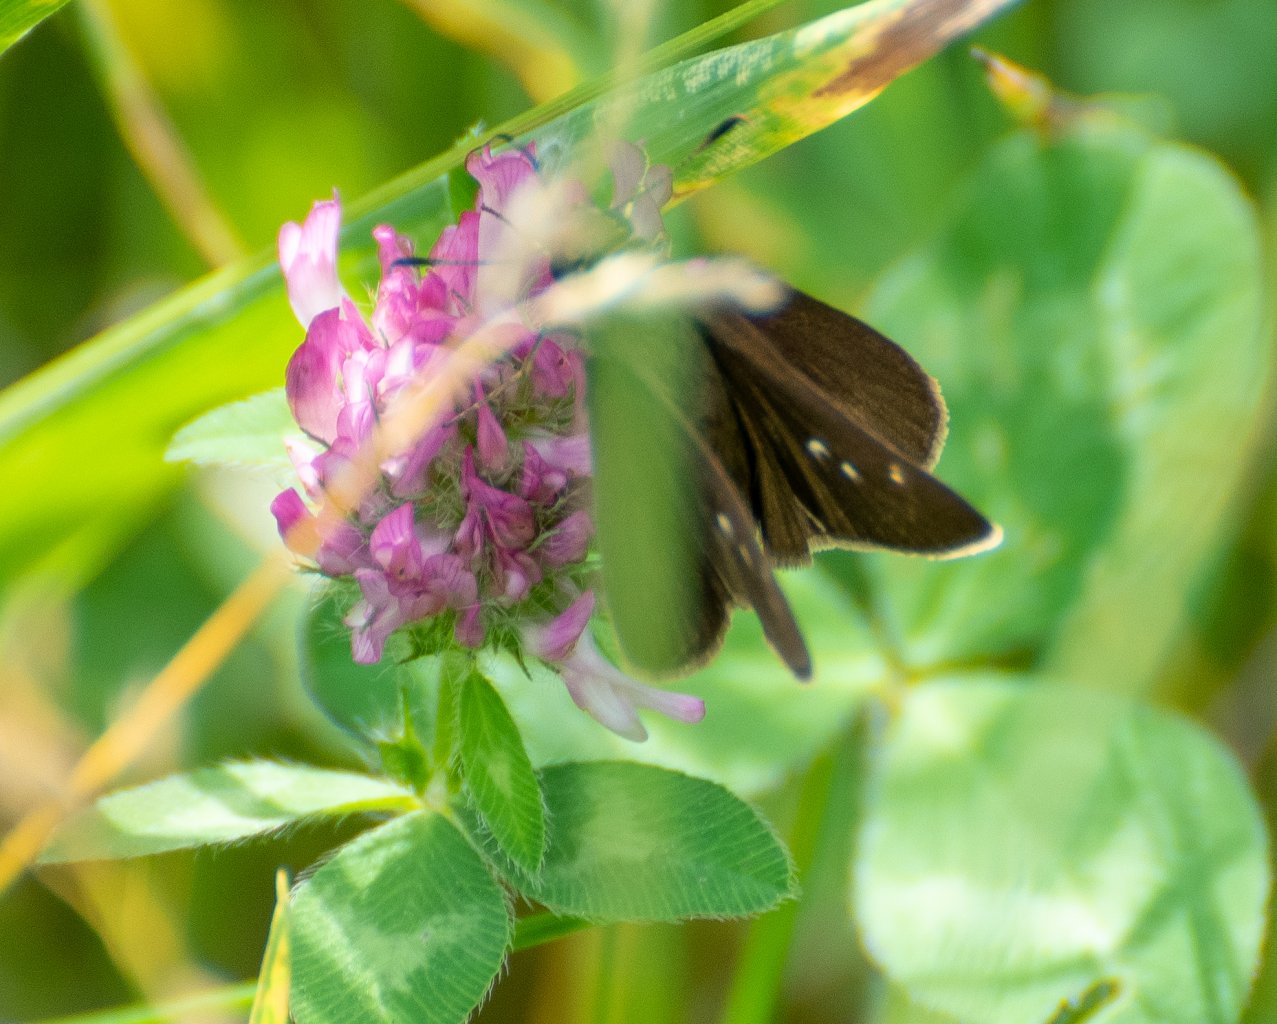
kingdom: Animalia
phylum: Arthropoda
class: Insecta
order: Lepidoptera
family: Hesperiidae
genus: Euphyes
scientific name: Euphyes vestris
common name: Dun Skipper
